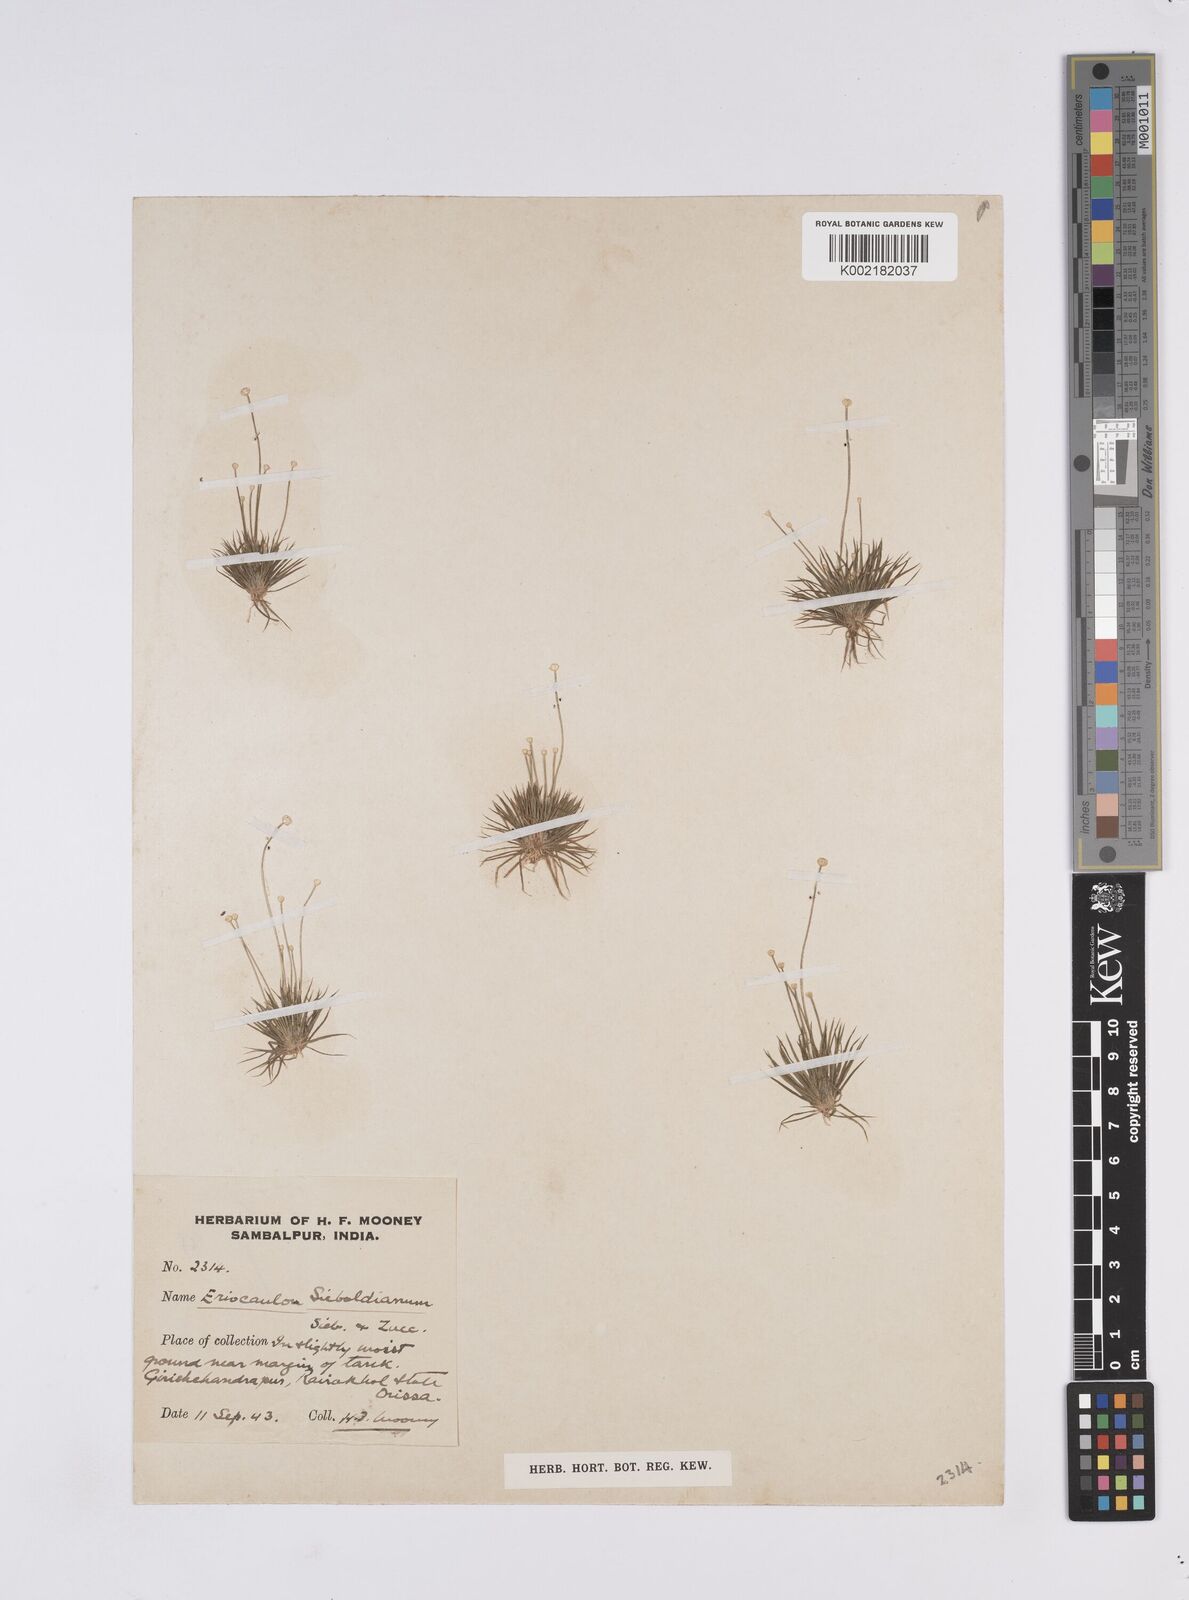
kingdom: Plantae
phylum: Tracheophyta
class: Liliopsida
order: Poales
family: Eriocaulaceae
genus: Eriocaulon
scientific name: Eriocaulon cinereum
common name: Ashy pipewort
